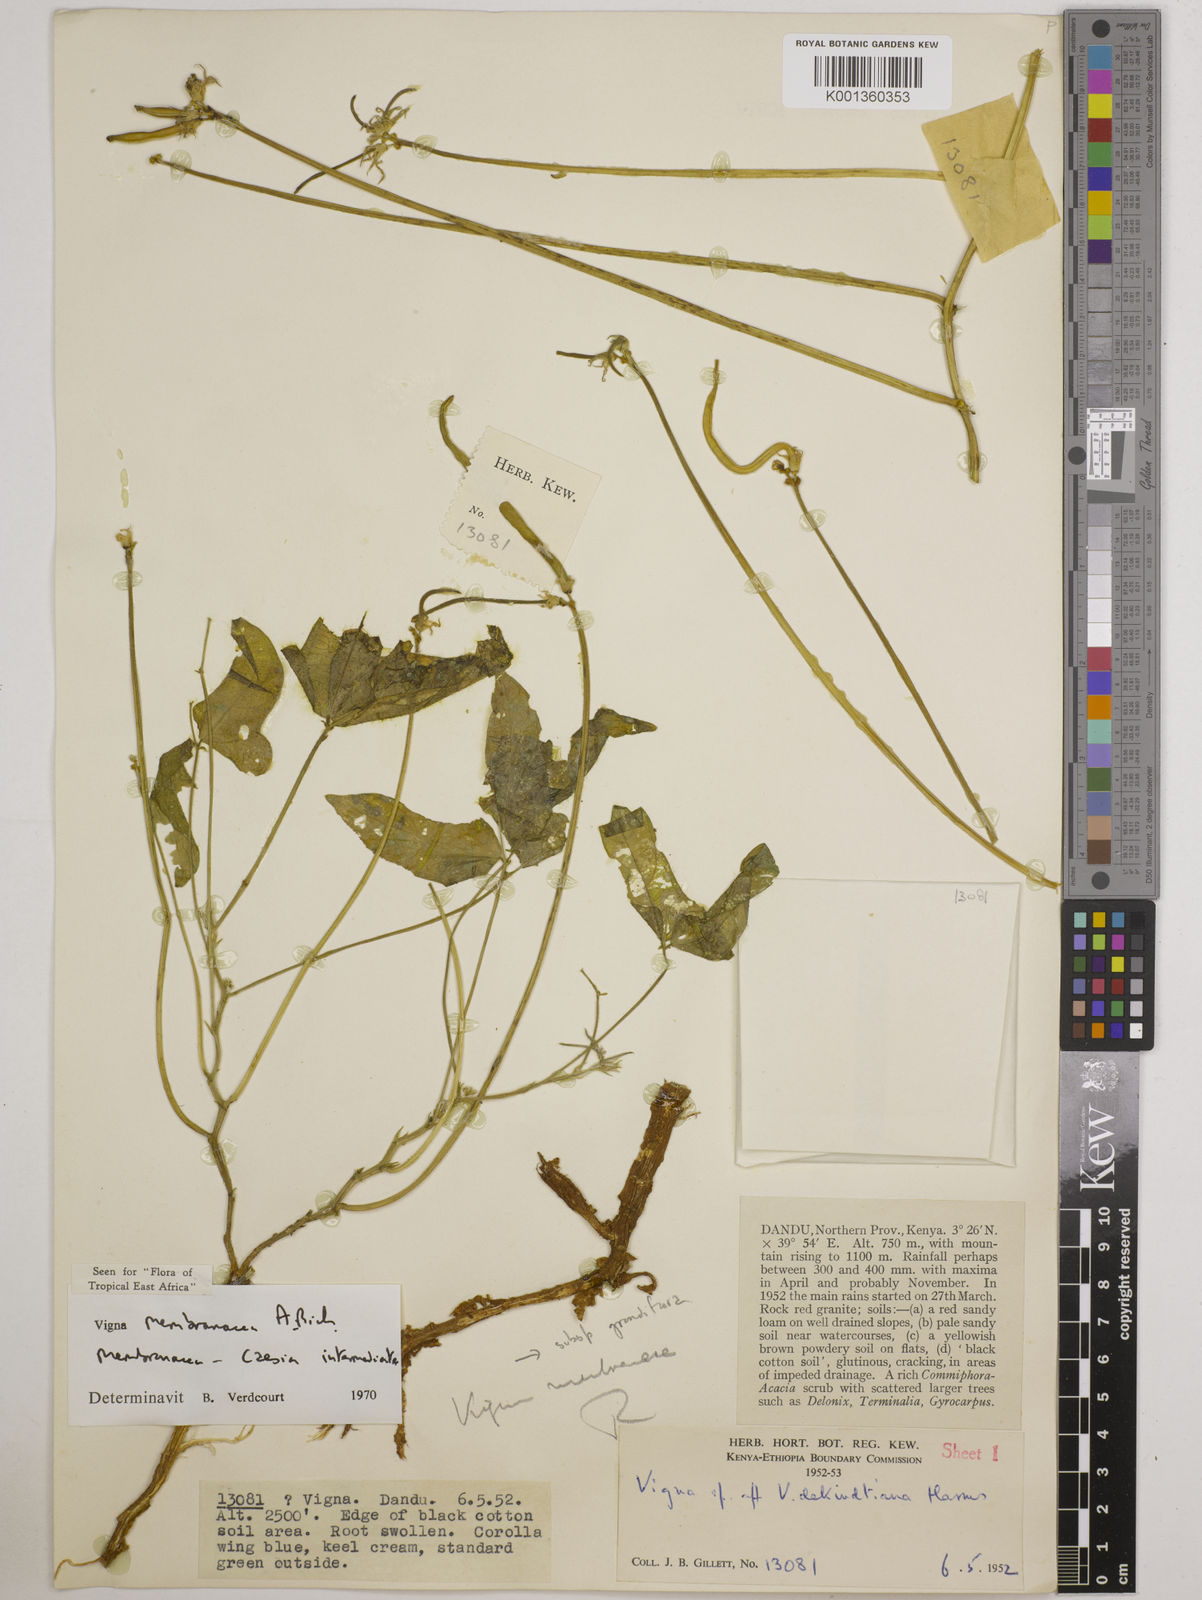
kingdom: Plantae
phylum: Tracheophyta
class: Magnoliopsida
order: Fabales
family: Fabaceae
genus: Vigna
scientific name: Vigna
